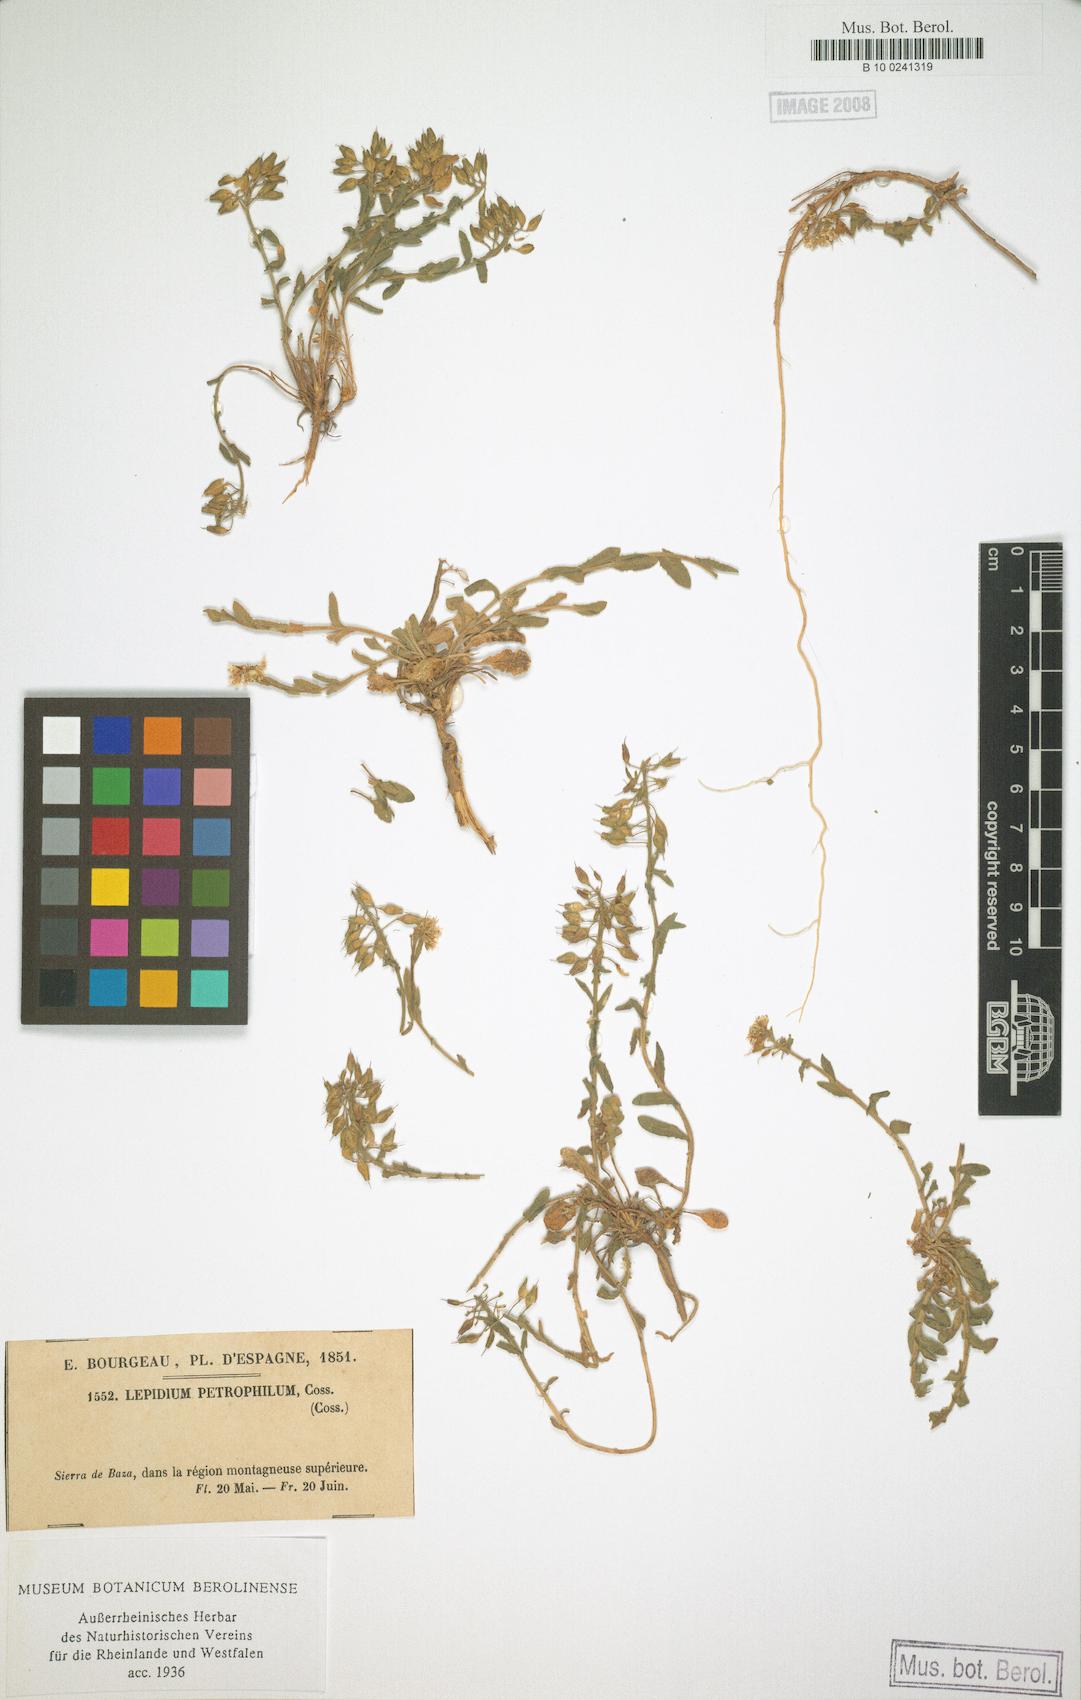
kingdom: Plantae
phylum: Tracheophyta
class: Magnoliopsida
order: Brassicales
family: Brassicaceae
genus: Lepidium
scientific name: Lepidium hirtum
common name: Mediterranean pepperweed
